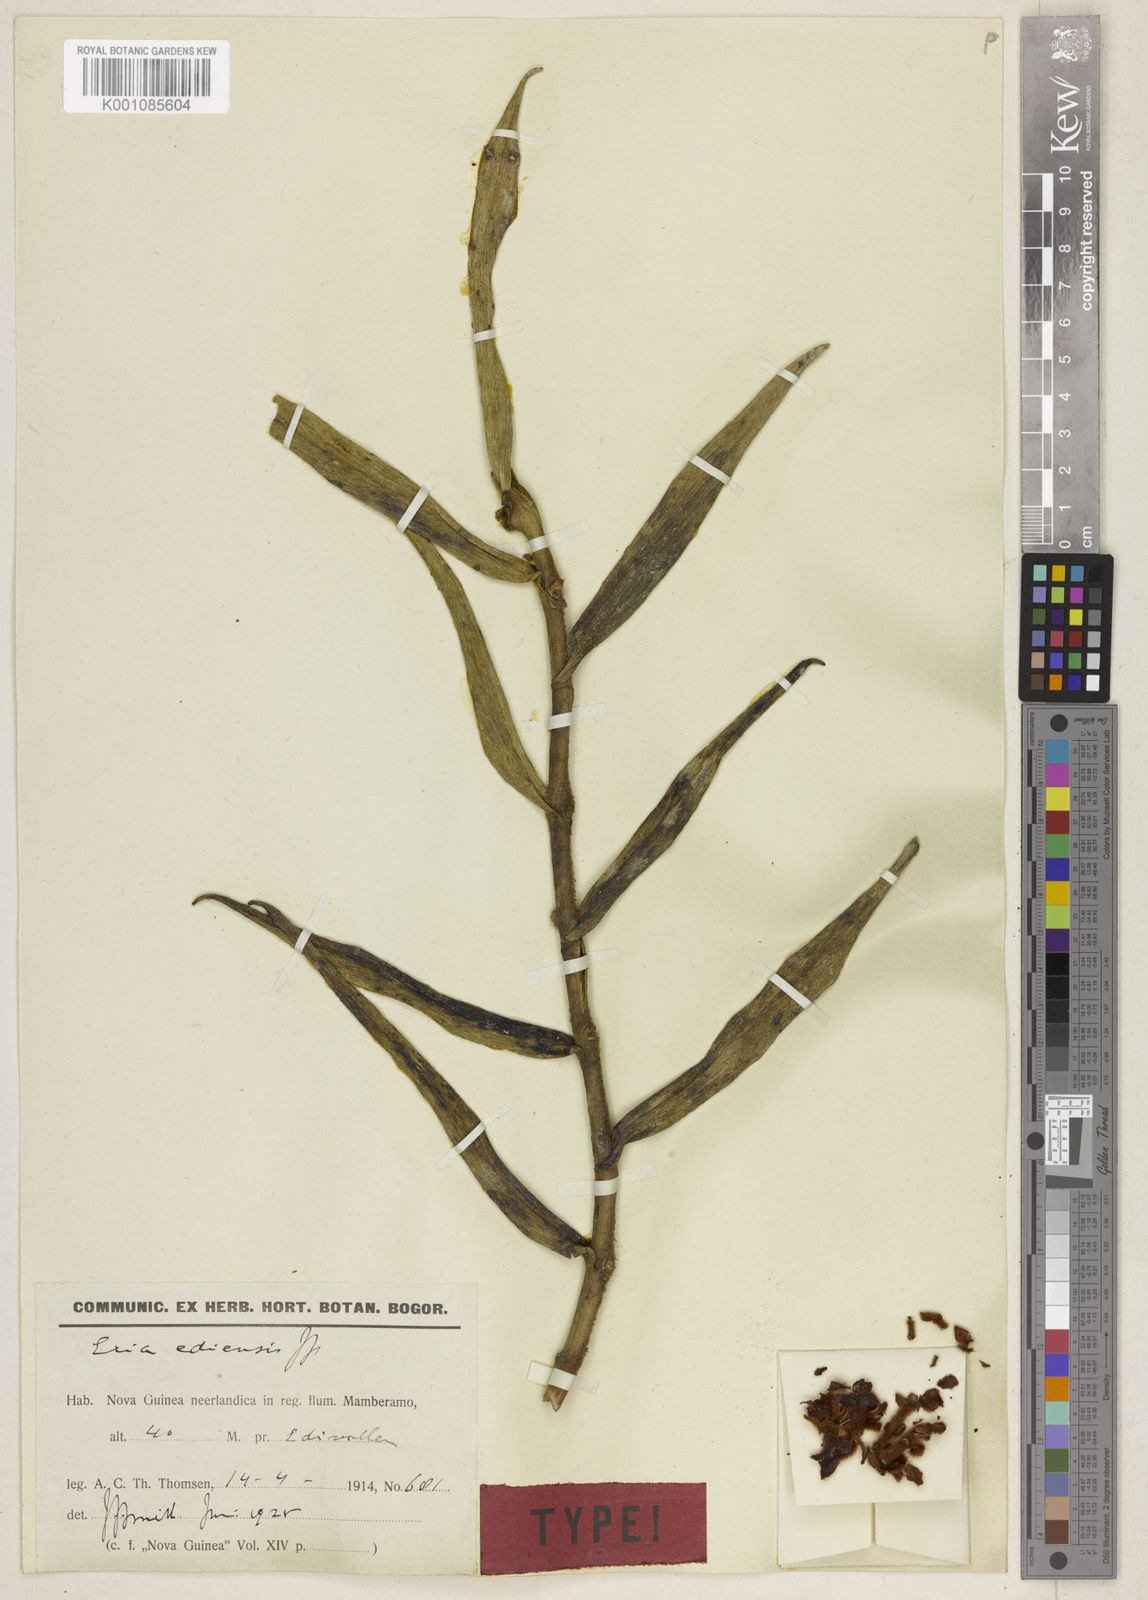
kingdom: Plantae
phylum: Tracheophyta
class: Liliopsida
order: Asparagales
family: Orchidaceae
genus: Trichotosia
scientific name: Trichotosia iodantha
